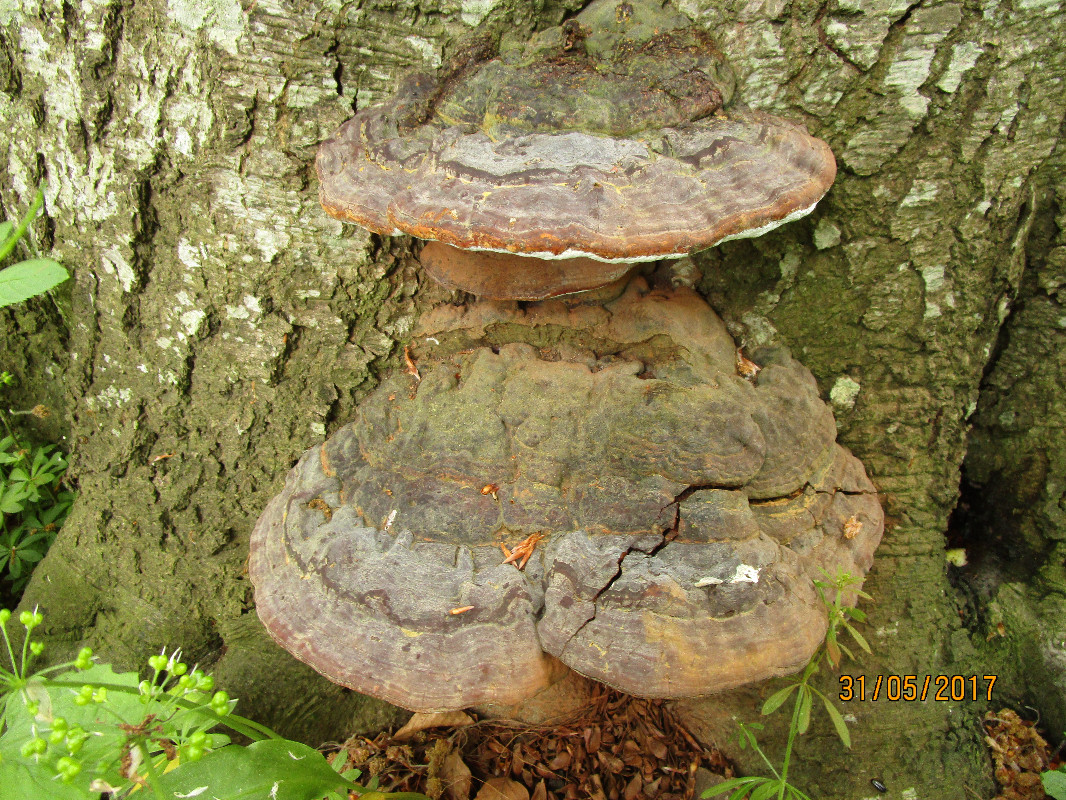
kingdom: Fungi
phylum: Basidiomycota
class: Agaricomycetes
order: Polyporales
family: Polyporaceae
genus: Ganoderma
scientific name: Ganoderma pfeifferi
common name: kobberrød lakporesvamp
